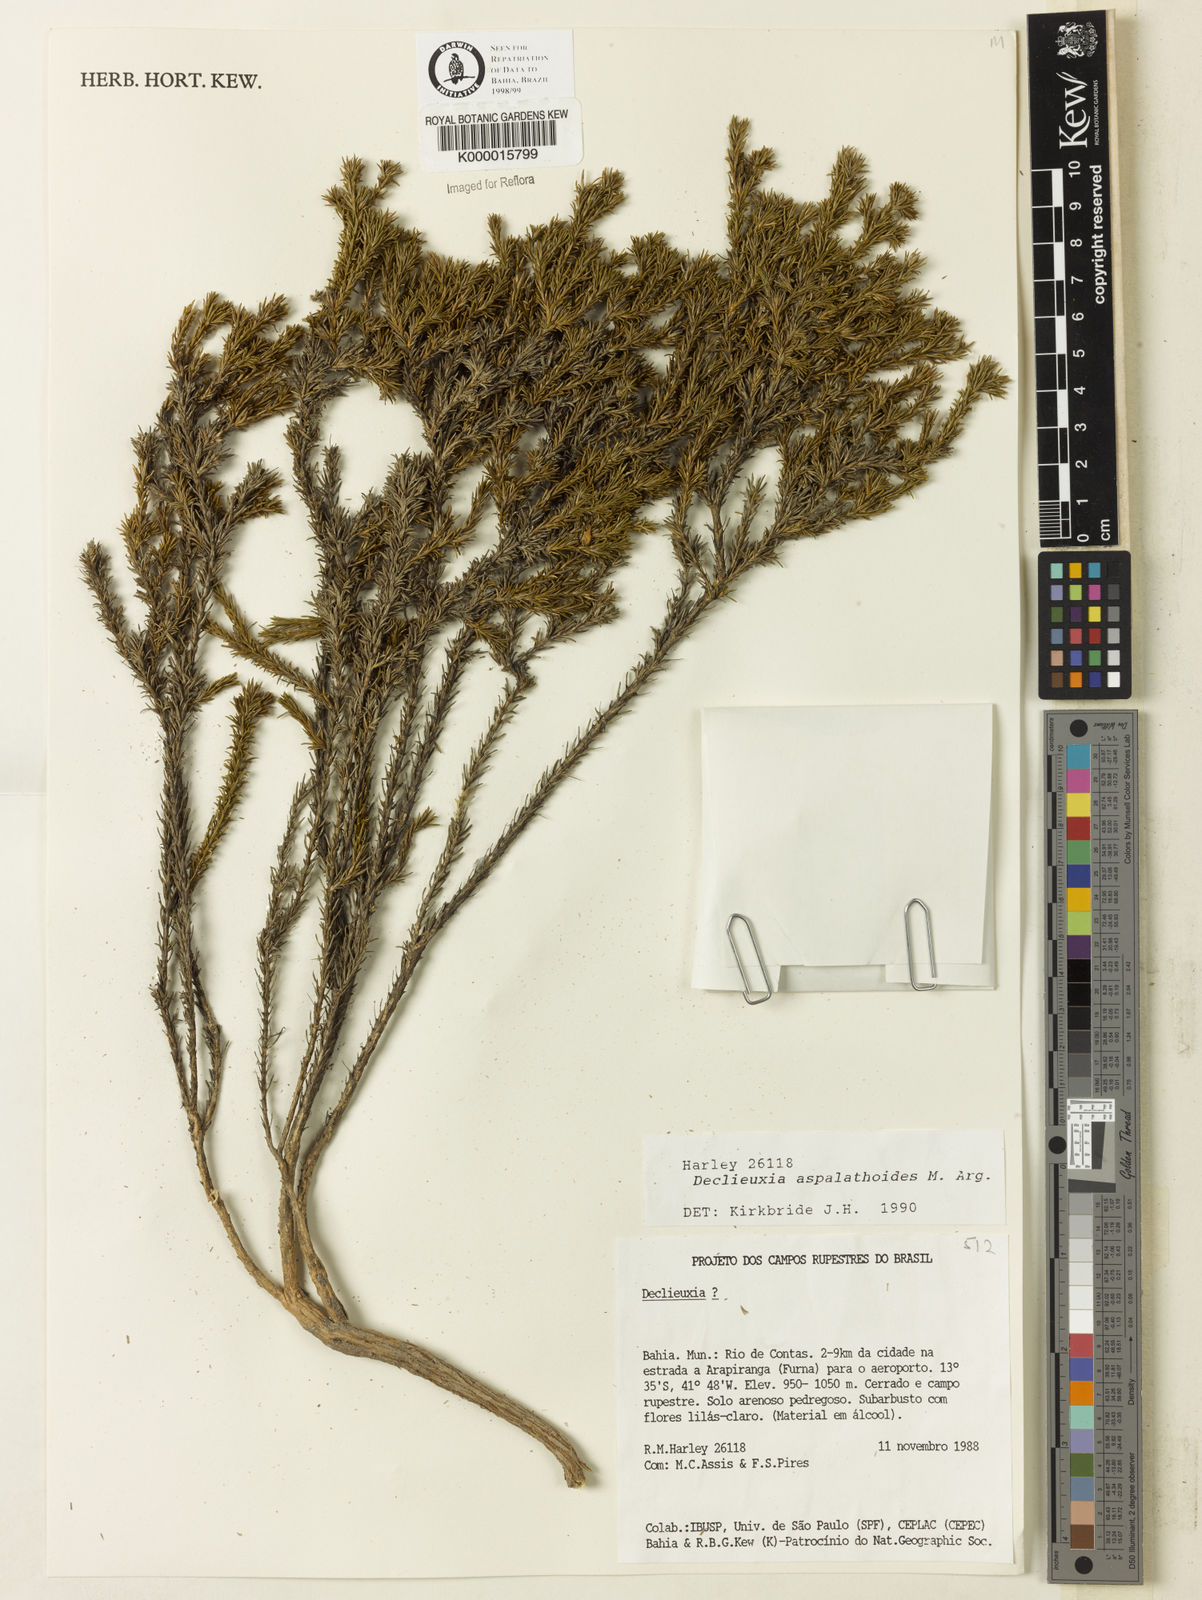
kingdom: Plantae
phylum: Tracheophyta
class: Magnoliopsida
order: Gentianales
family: Rubiaceae
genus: Declieuxia
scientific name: Declieuxia aspalathoides
